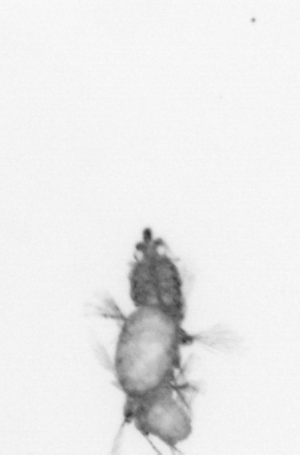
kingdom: Animalia
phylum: Annelida
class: Polychaeta
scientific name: Polychaeta
